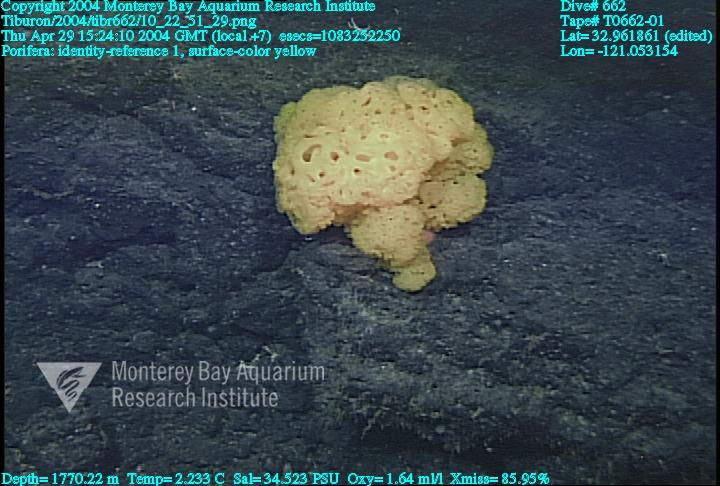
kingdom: Animalia
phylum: Porifera
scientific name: Porifera
